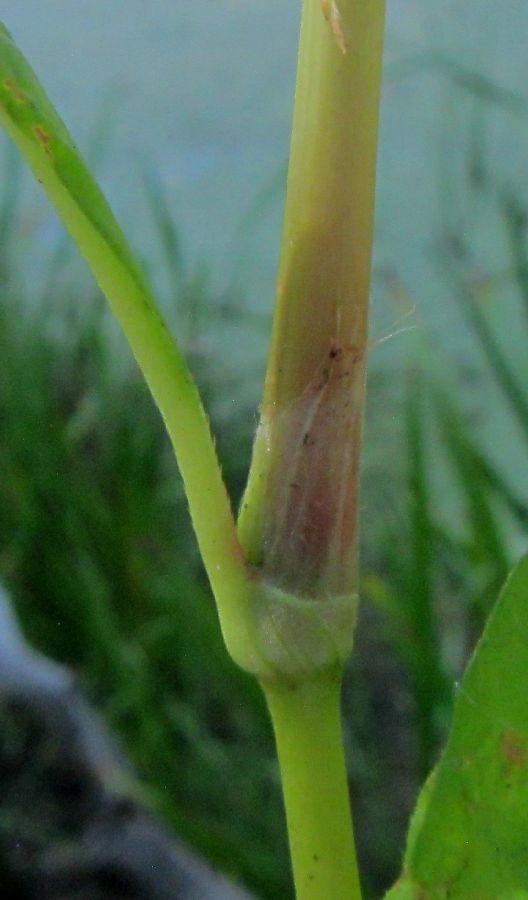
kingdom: Plantae
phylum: Tracheophyta
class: Magnoliopsida
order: Caryophyllales
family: Polygonaceae
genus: Persicaria
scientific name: Persicaria
